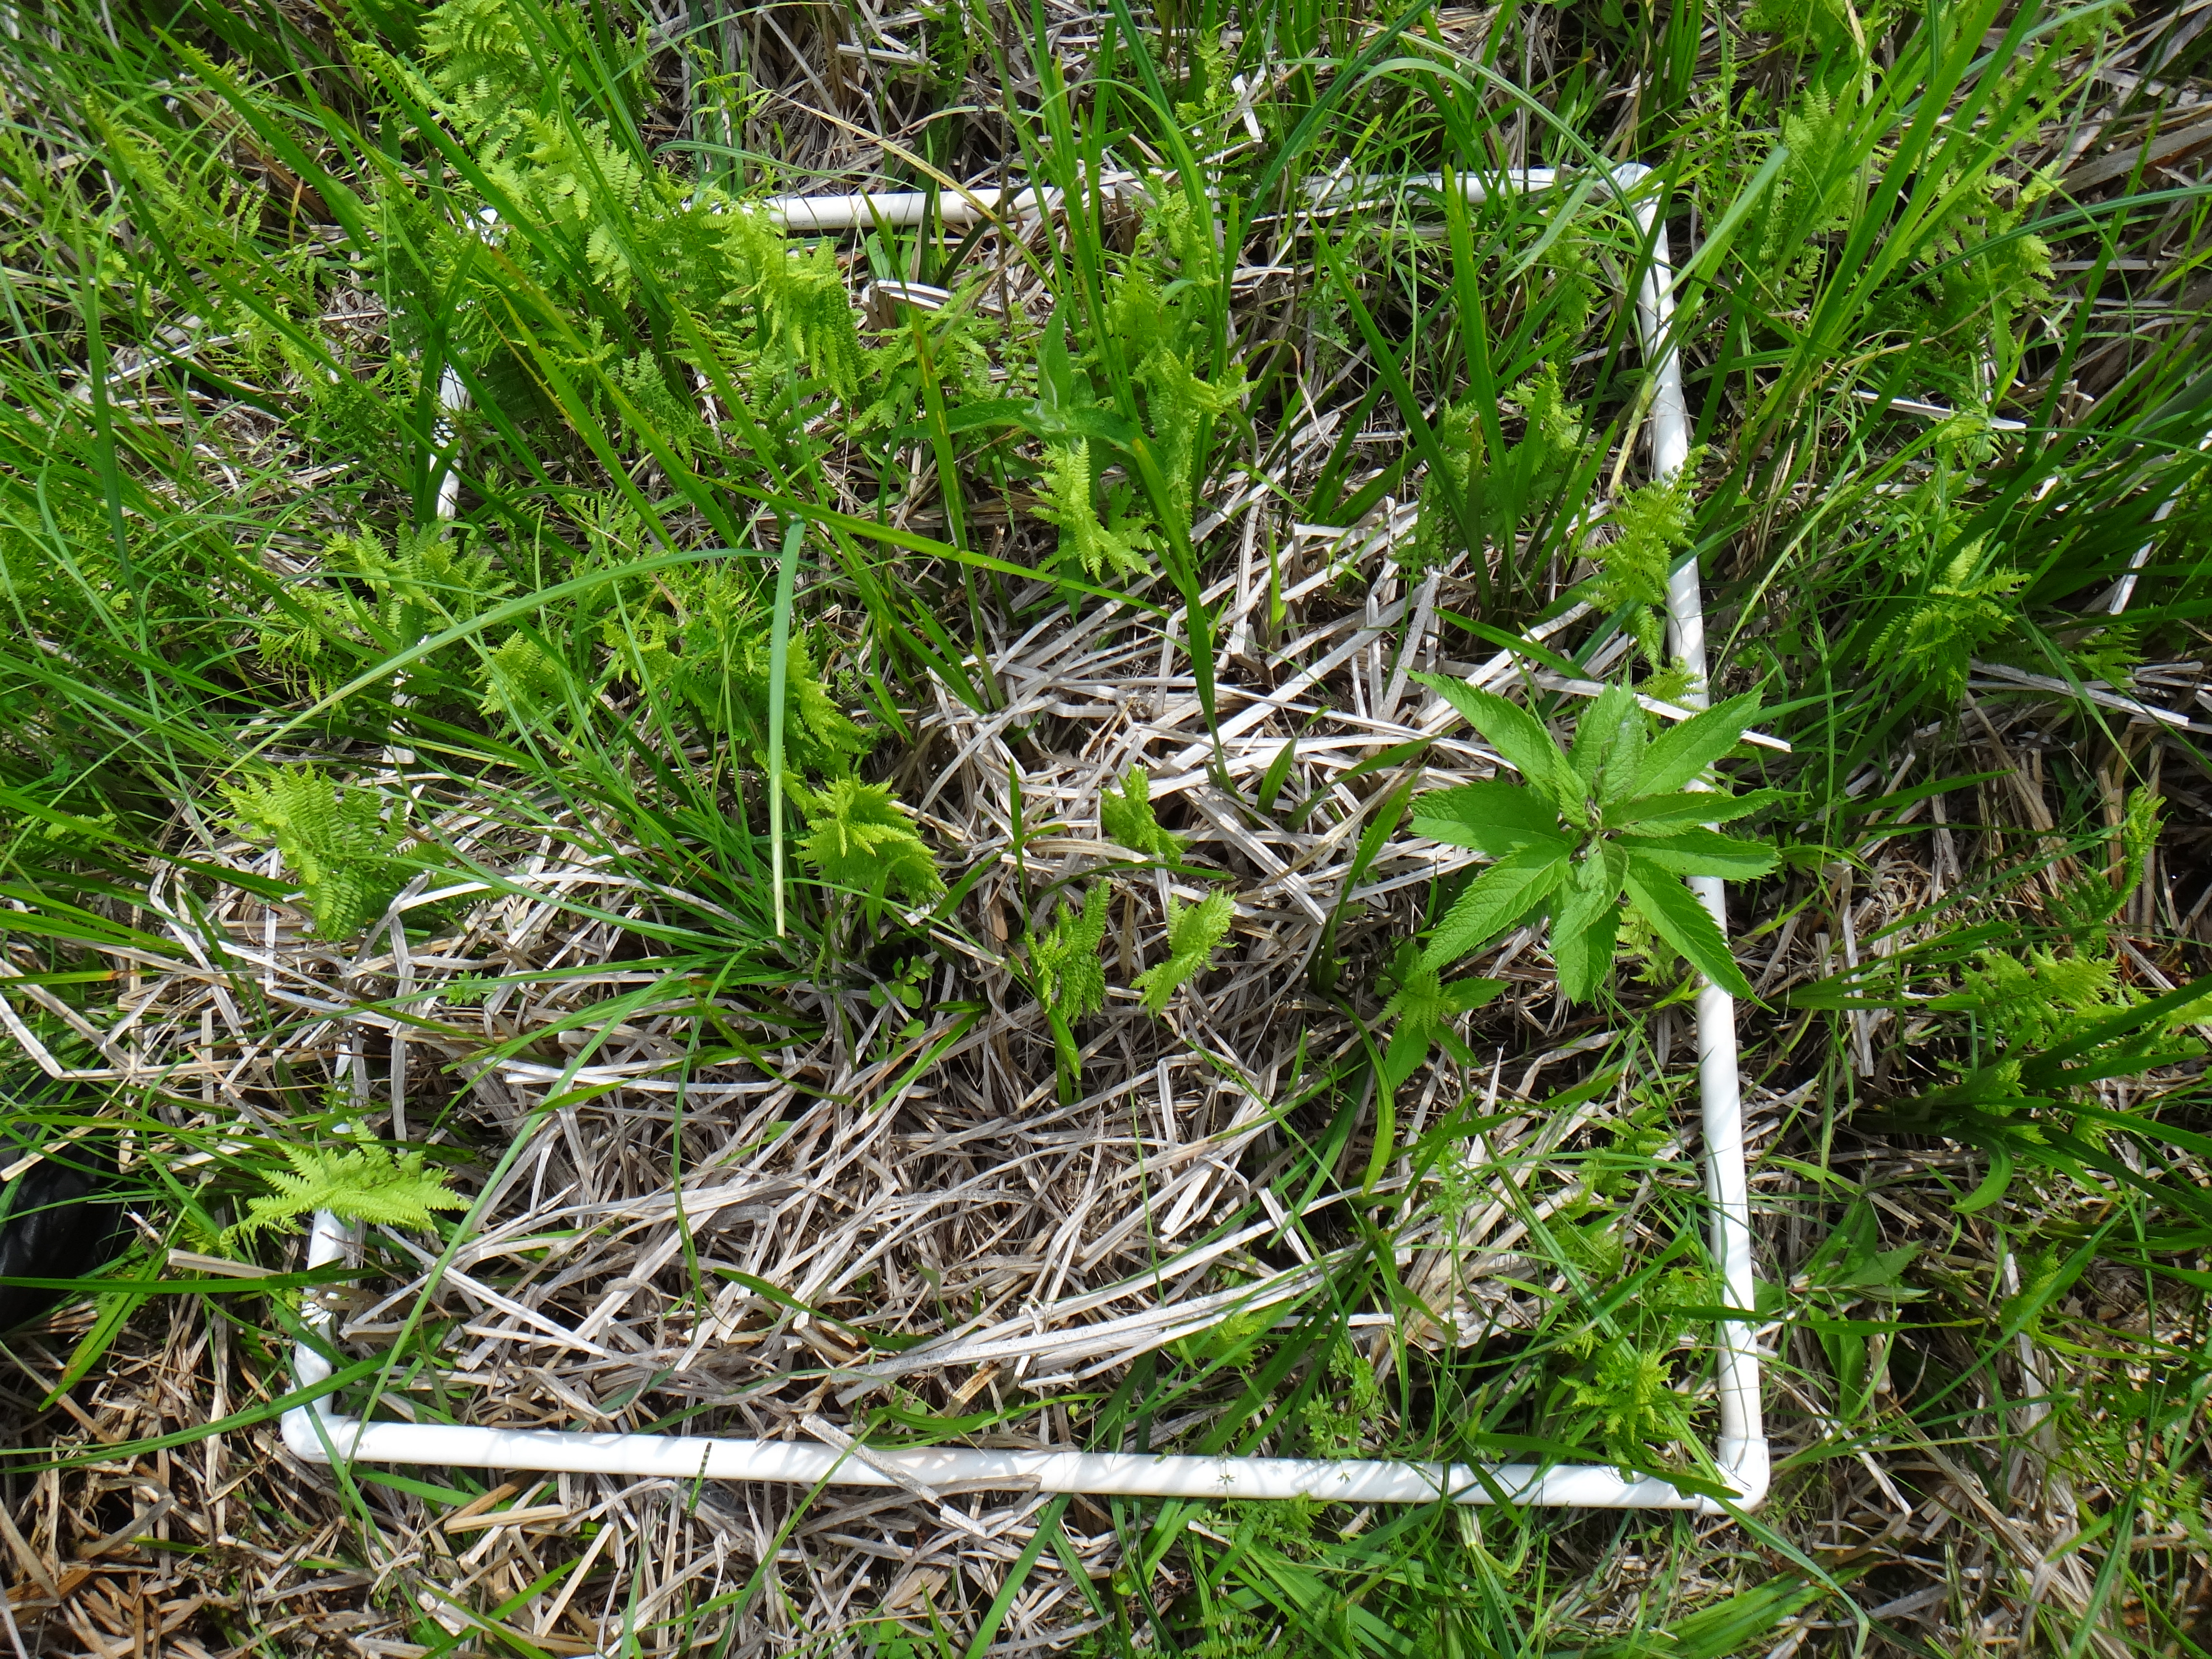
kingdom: Plantae
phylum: Tracheophyta
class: Magnoliopsida
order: Ericales
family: Balsaminaceae
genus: Impatiens
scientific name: Impatiens capensis
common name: Orange balsam
